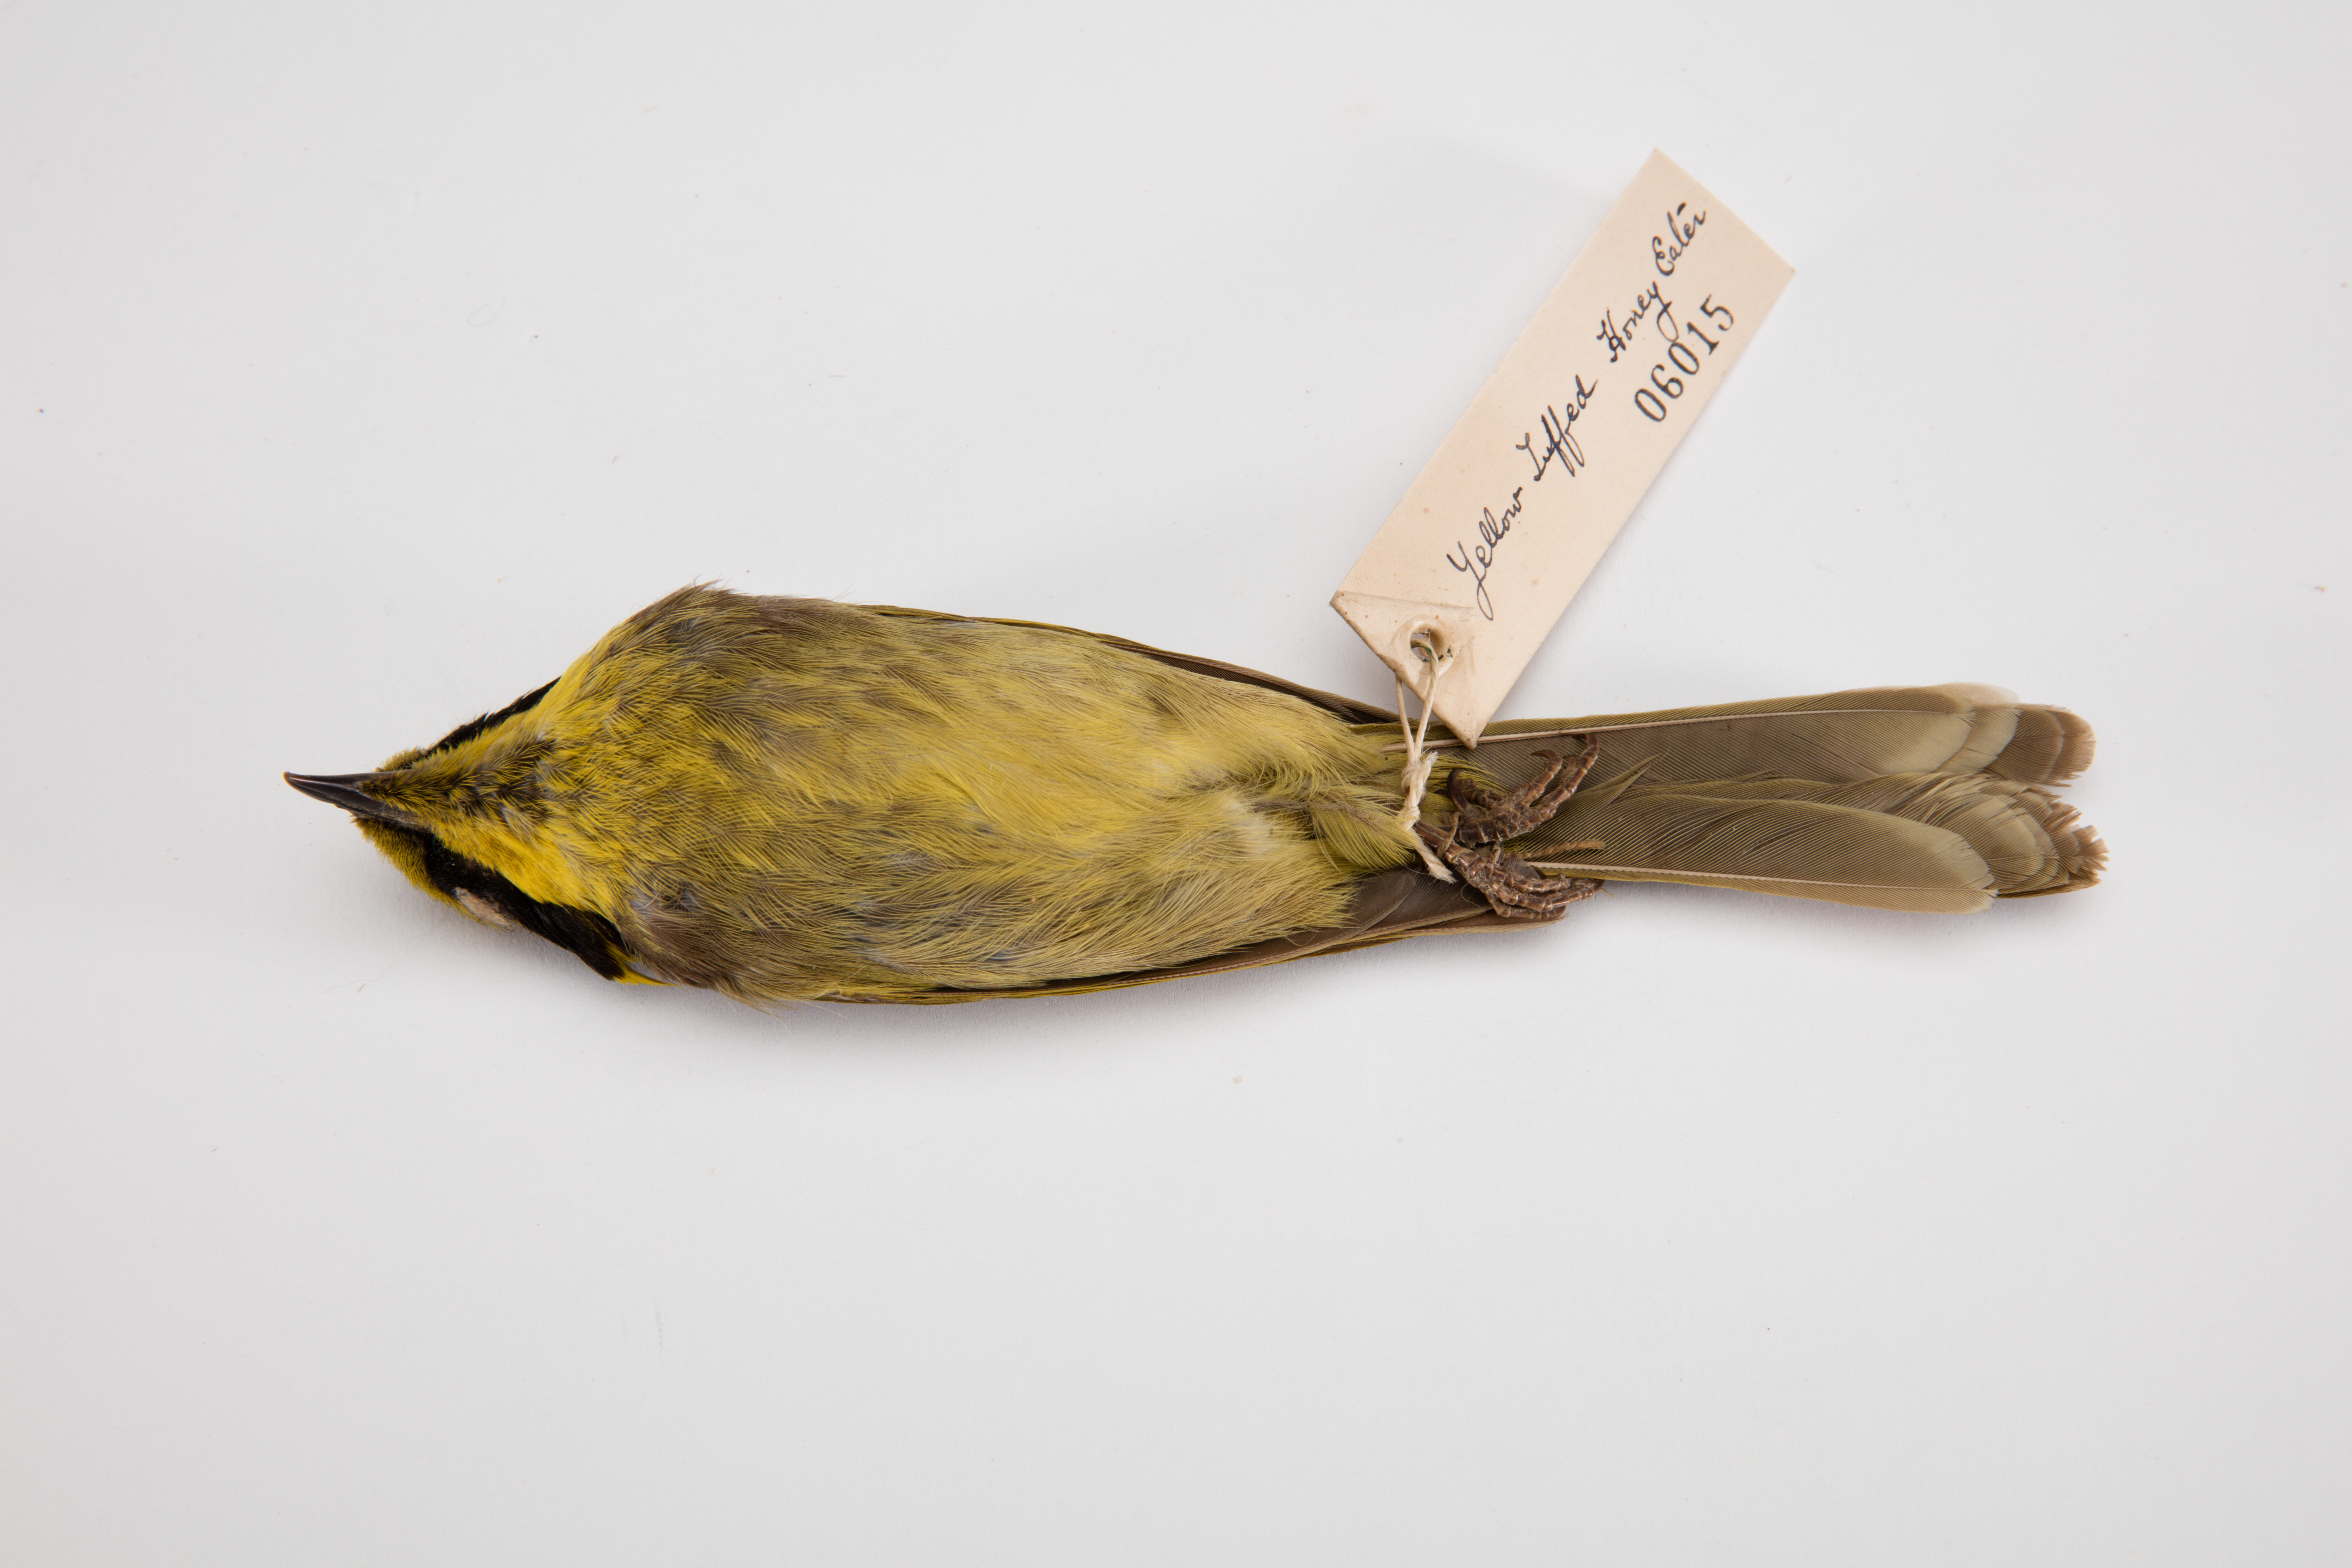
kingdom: Animalia
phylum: Chordata
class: Aves
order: Passeriformes
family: Meliphagidae
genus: Meliphaga
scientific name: Meliphaga
